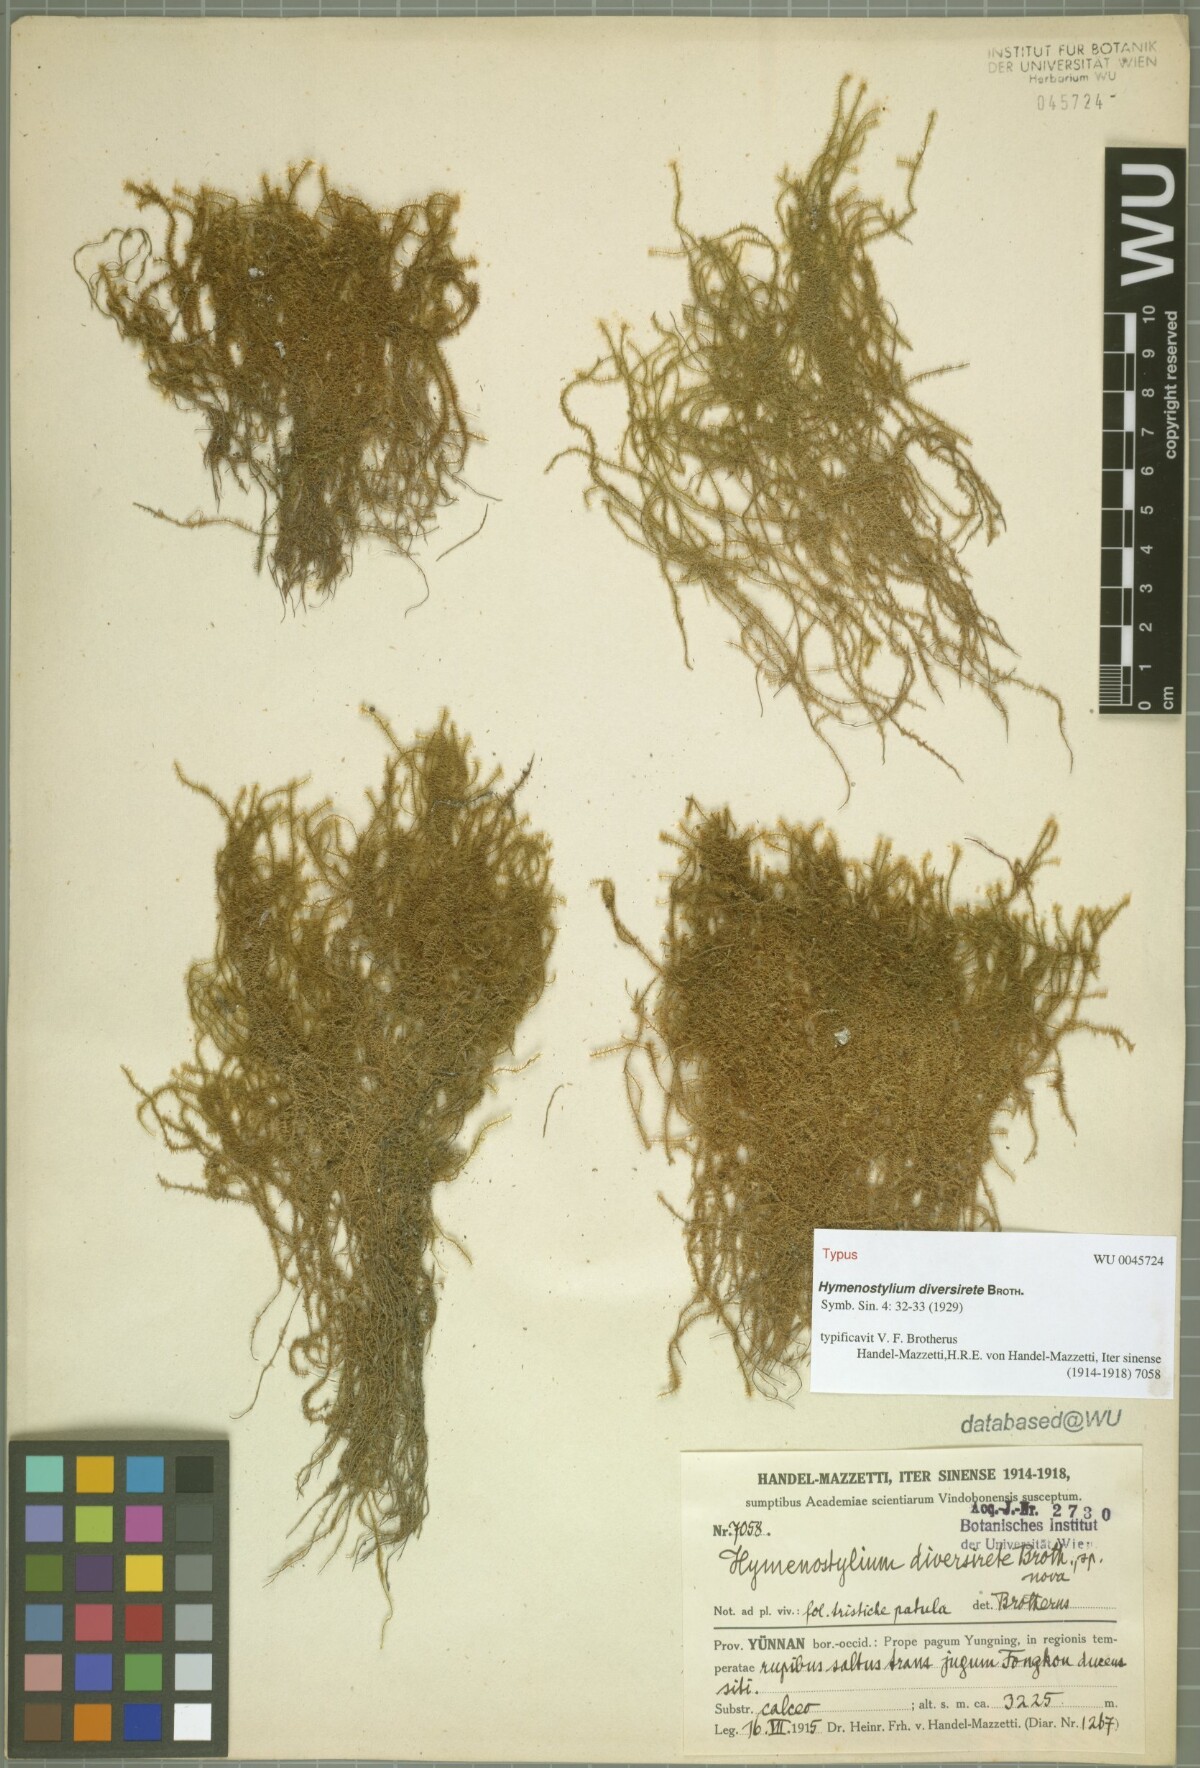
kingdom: Plantae
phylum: Bryophyta
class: Bryopsida
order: Pottiales
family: Pottiaceae
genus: Reimersia
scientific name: Reimersia diversiretis
